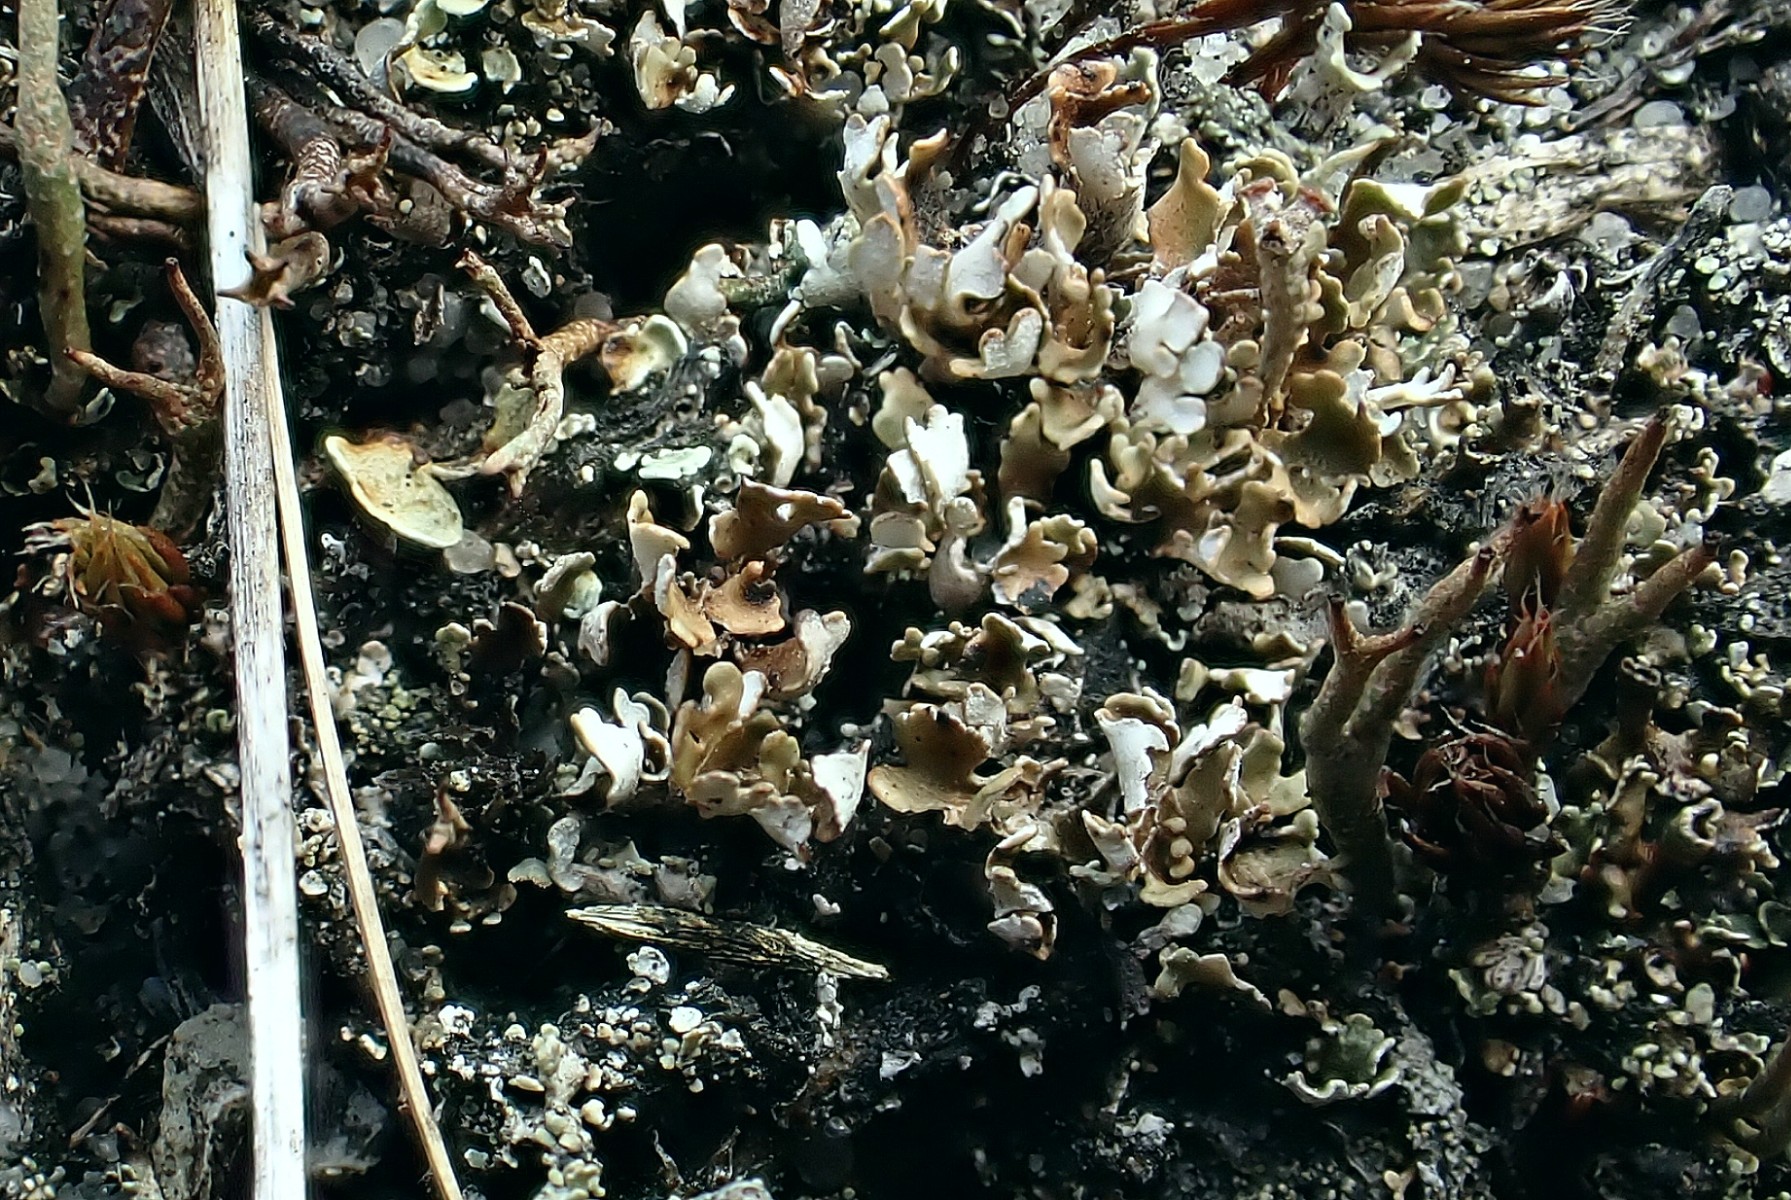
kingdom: Fungi
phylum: Ascomycota
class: Lecanoromycetes
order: Lecanorales
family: Cladoniaceae
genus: Cladonia
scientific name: Cladonia foliacea
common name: fliget bægerlav
